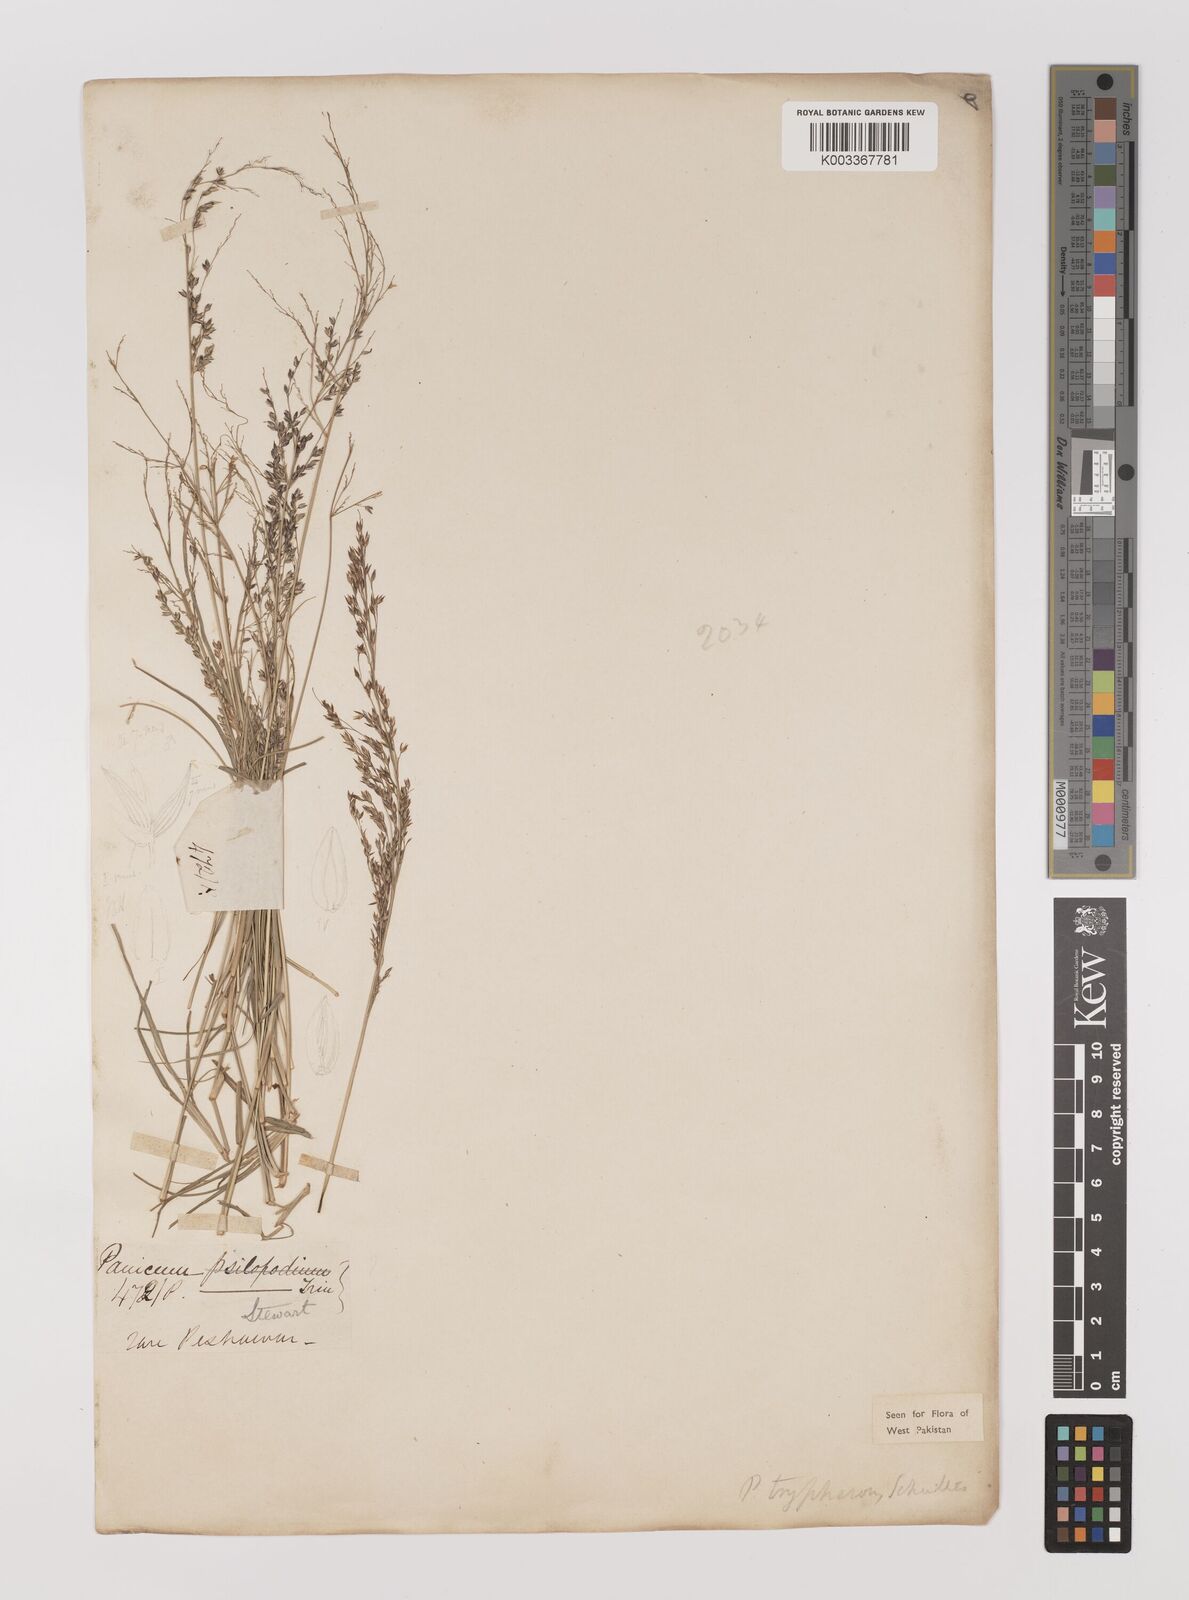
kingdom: Plantae
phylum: Tracheophyta
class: Liliopsida
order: Poales
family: Poaceae
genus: Panicum
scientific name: Panicum curviflorum
